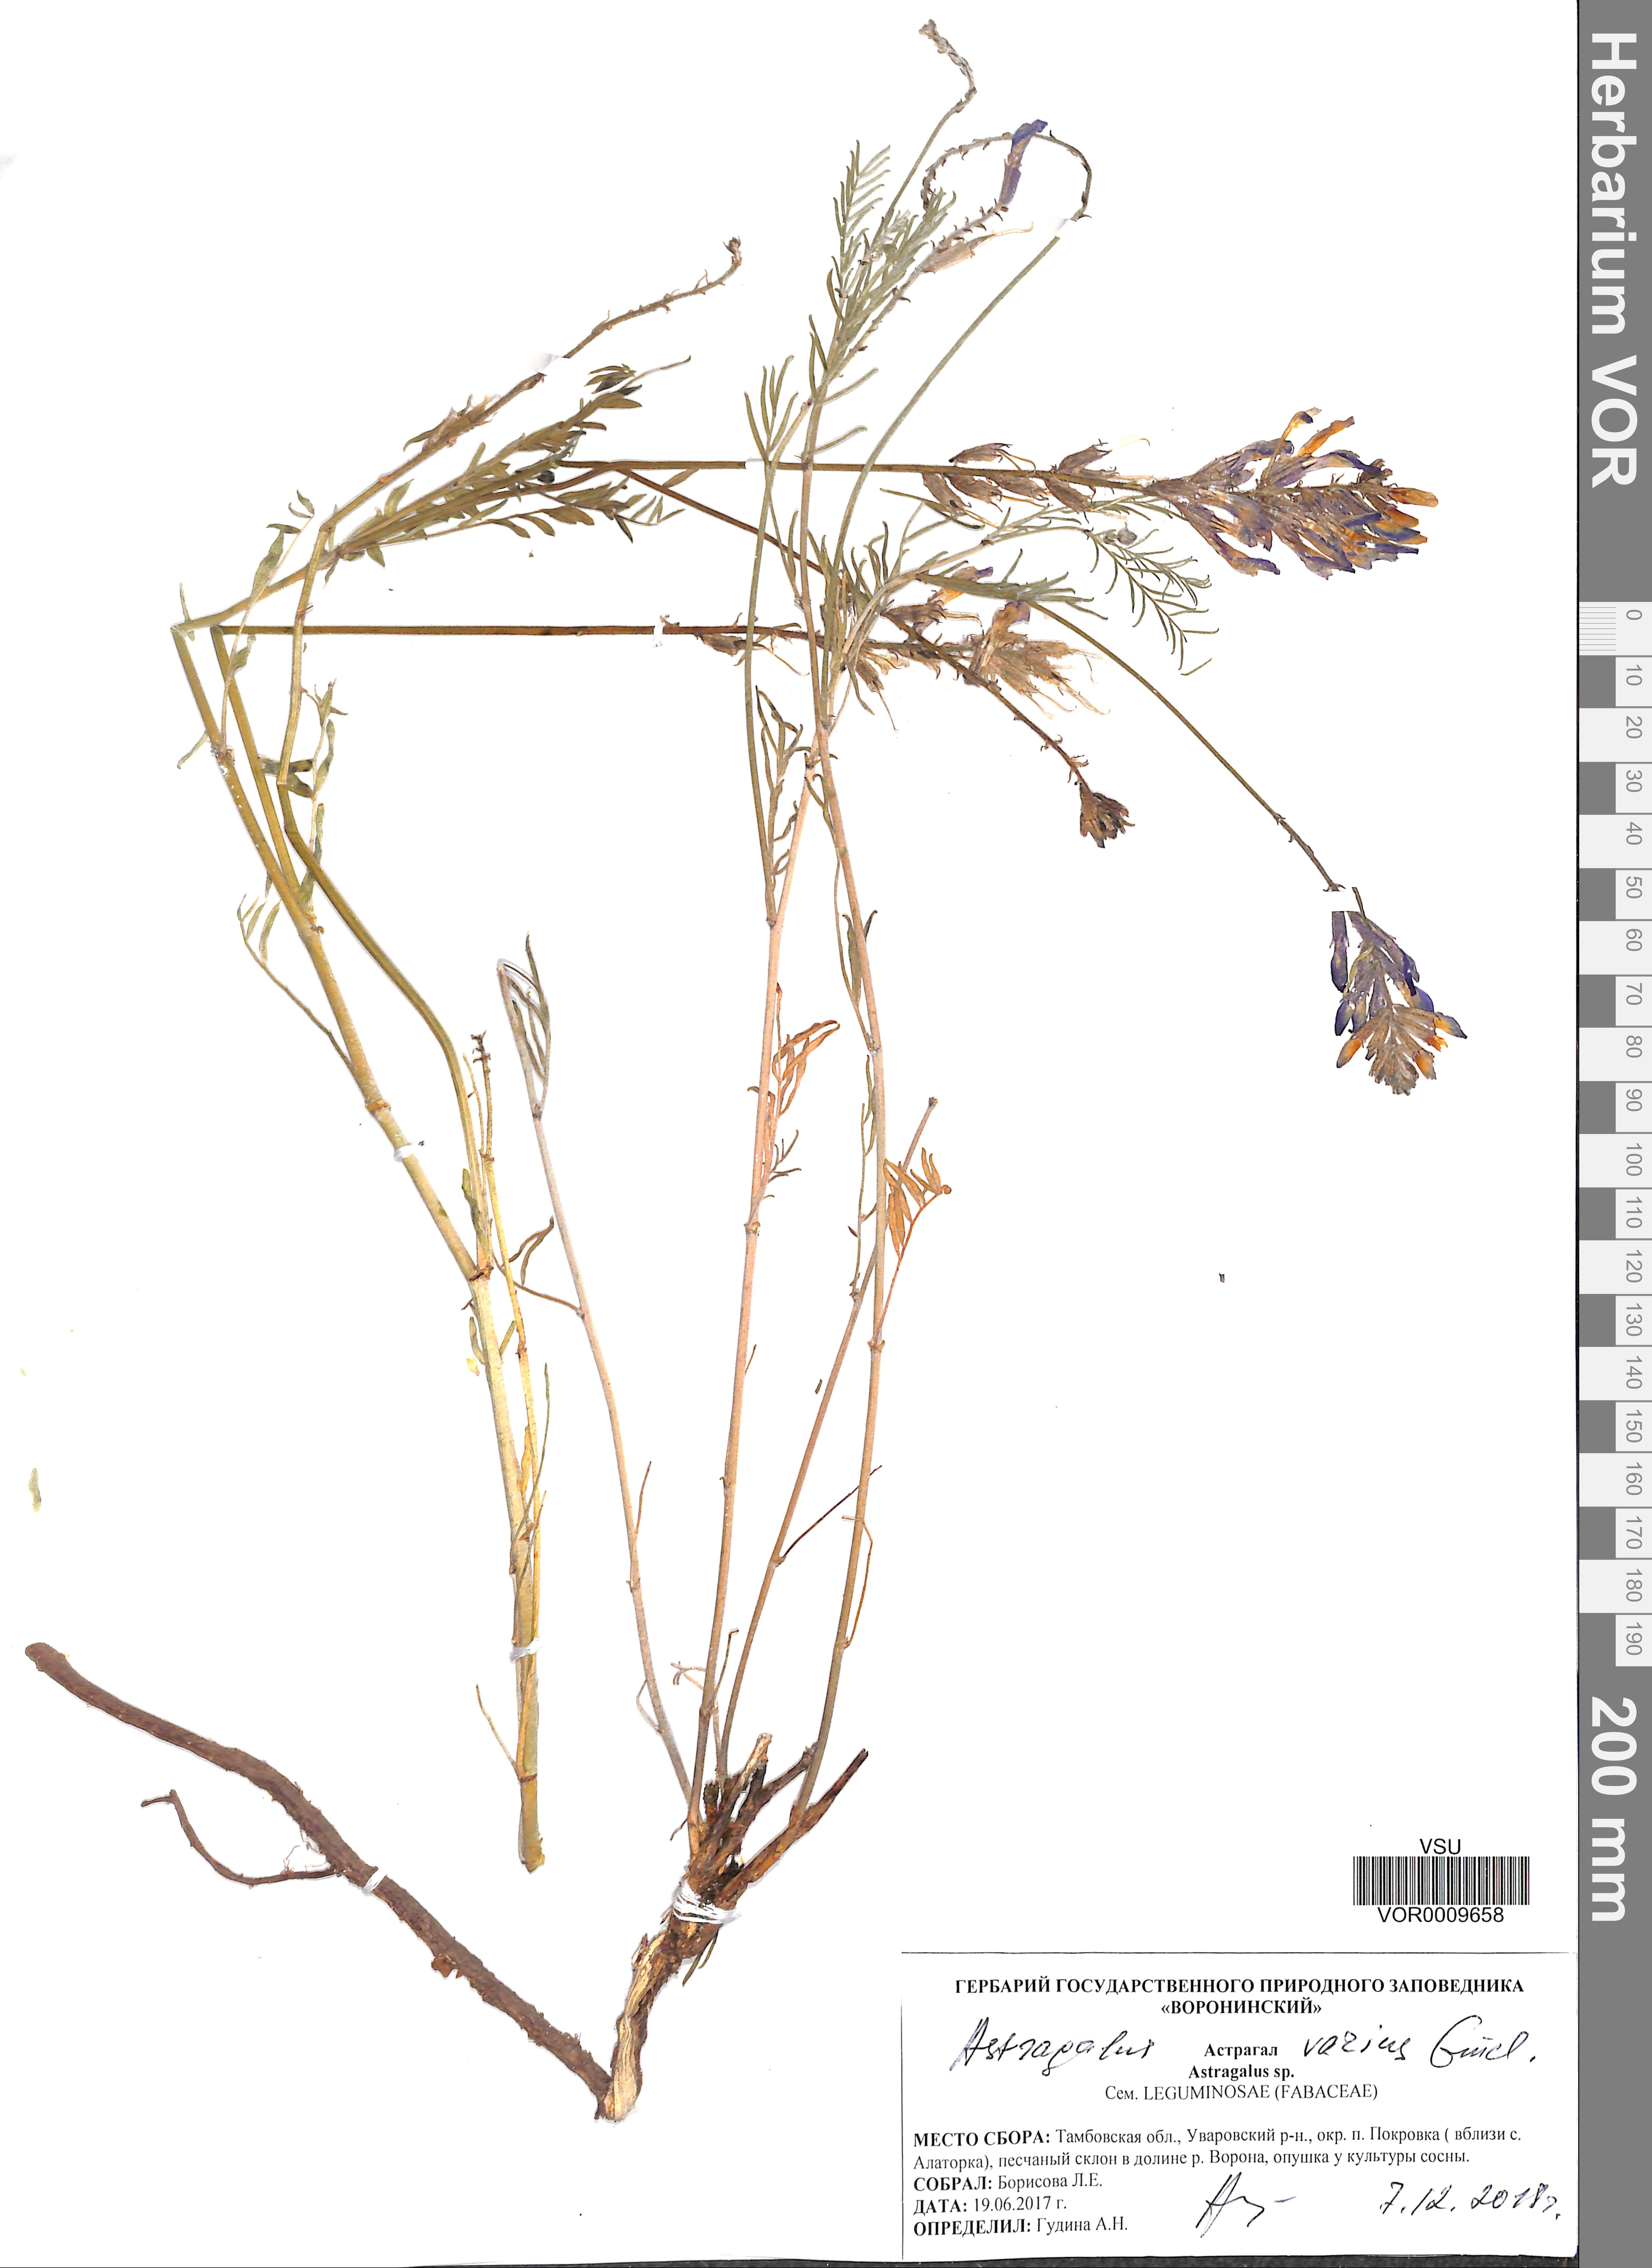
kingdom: Plantae
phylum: Tracheophyta
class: Magnoliopsida
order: Fabales
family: Fabaceae
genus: Astragalus
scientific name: Astragalus varius
